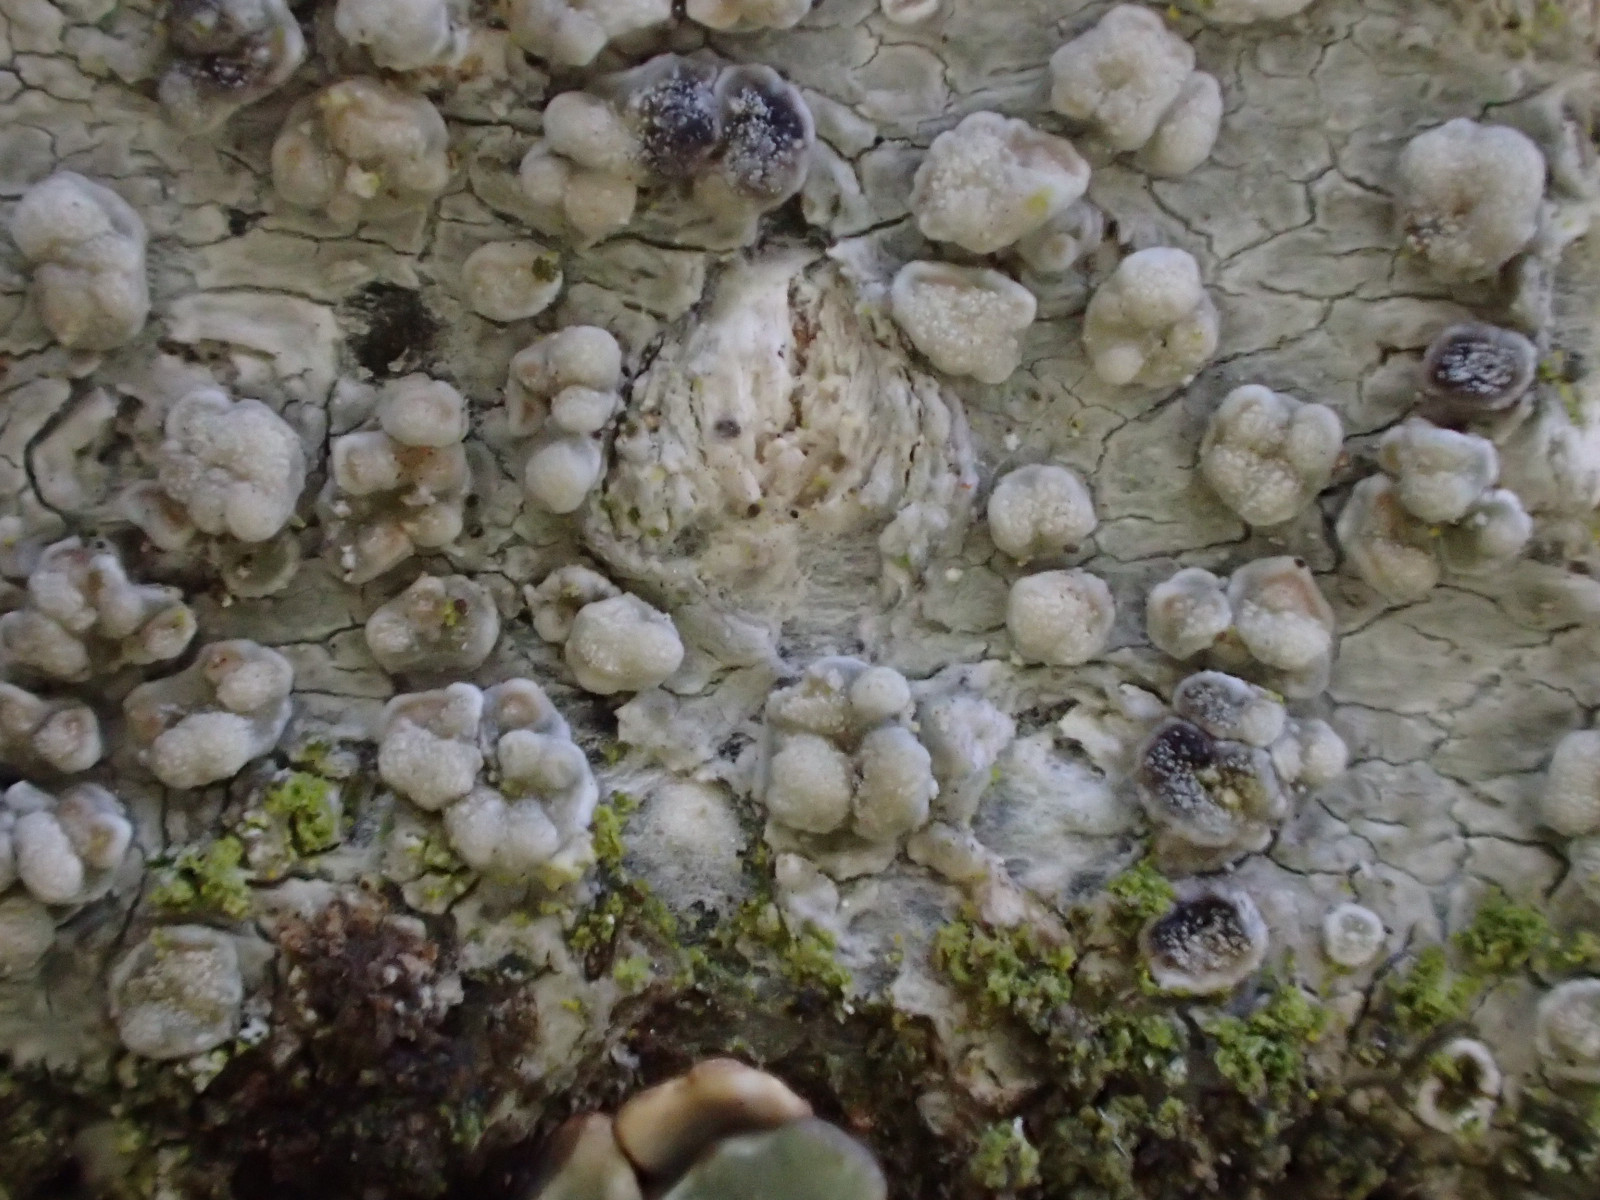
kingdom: Fungi
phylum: Ascomycota
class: Lecanoromycetes
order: Lecanorales
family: Lecanoraceae
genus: Glaucomaria
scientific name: Glaucomaria carpinea
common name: hviddugget kantskivelav
